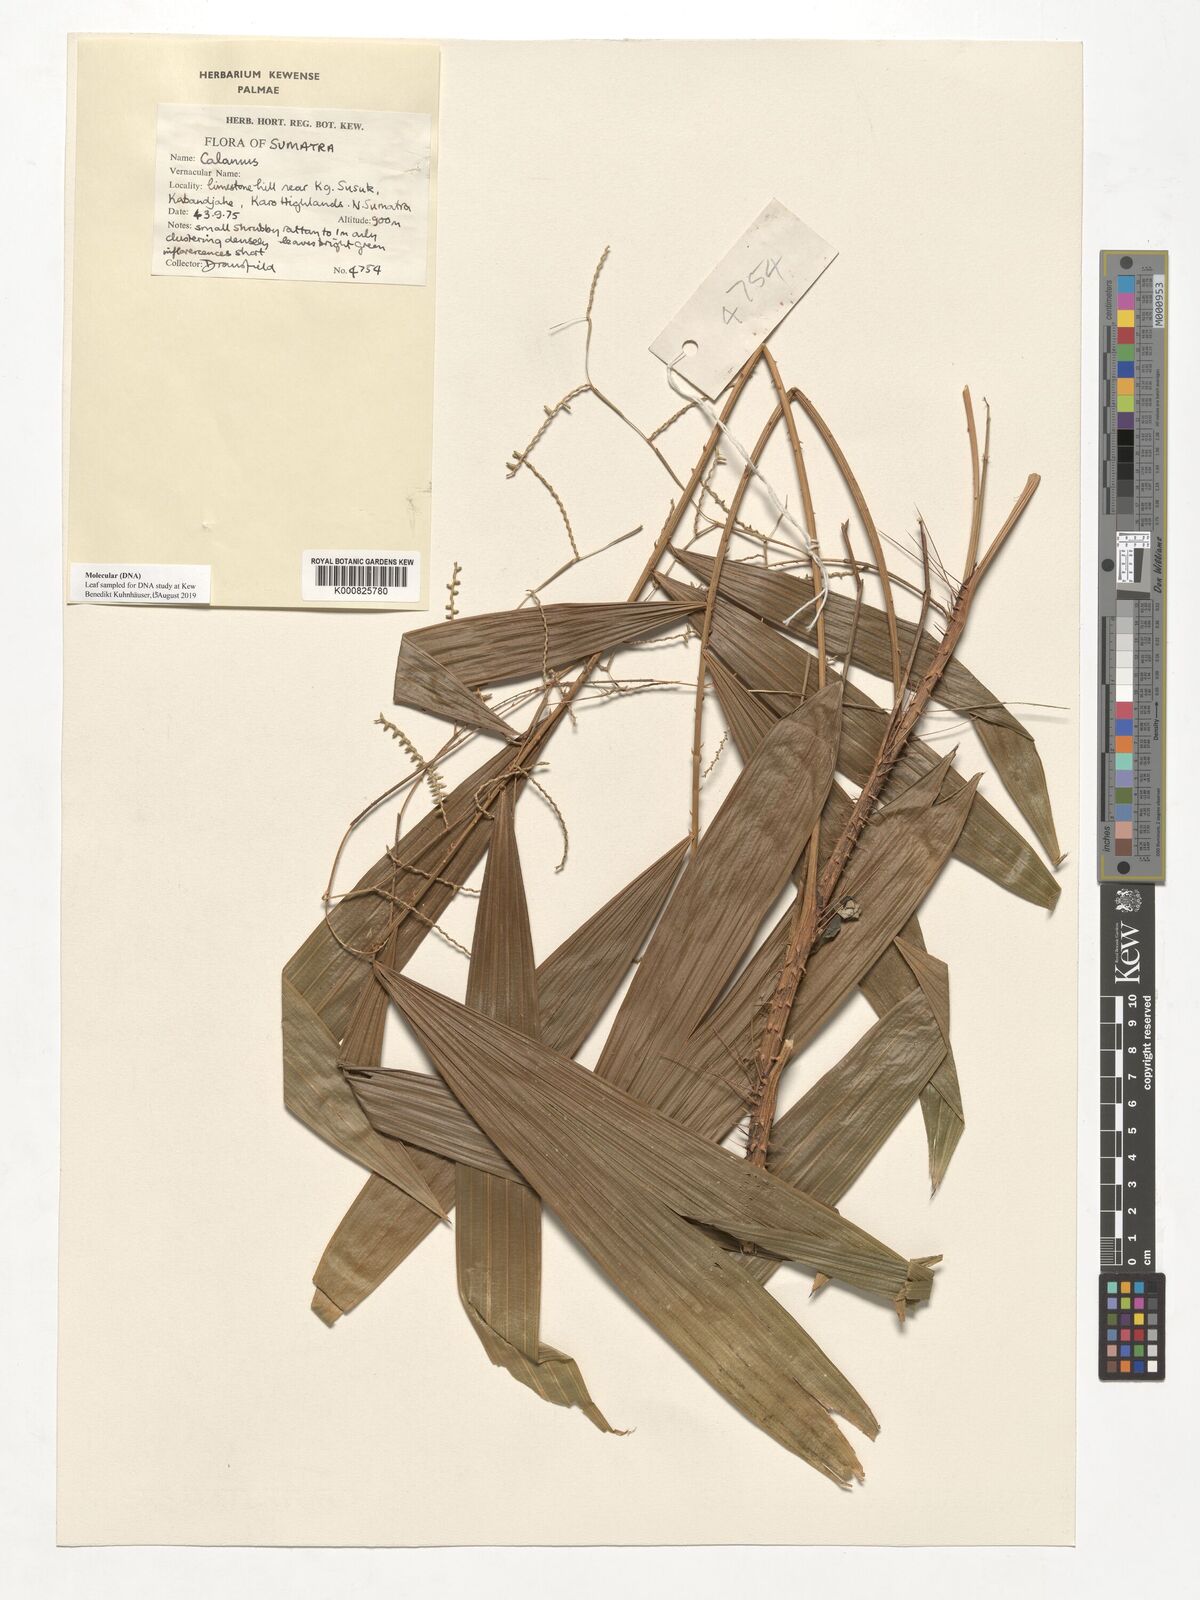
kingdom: Plantae
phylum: Tracheophyta
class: Liliopsida
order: Arecales
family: Arecaceae
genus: Calamus
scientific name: Calamus
